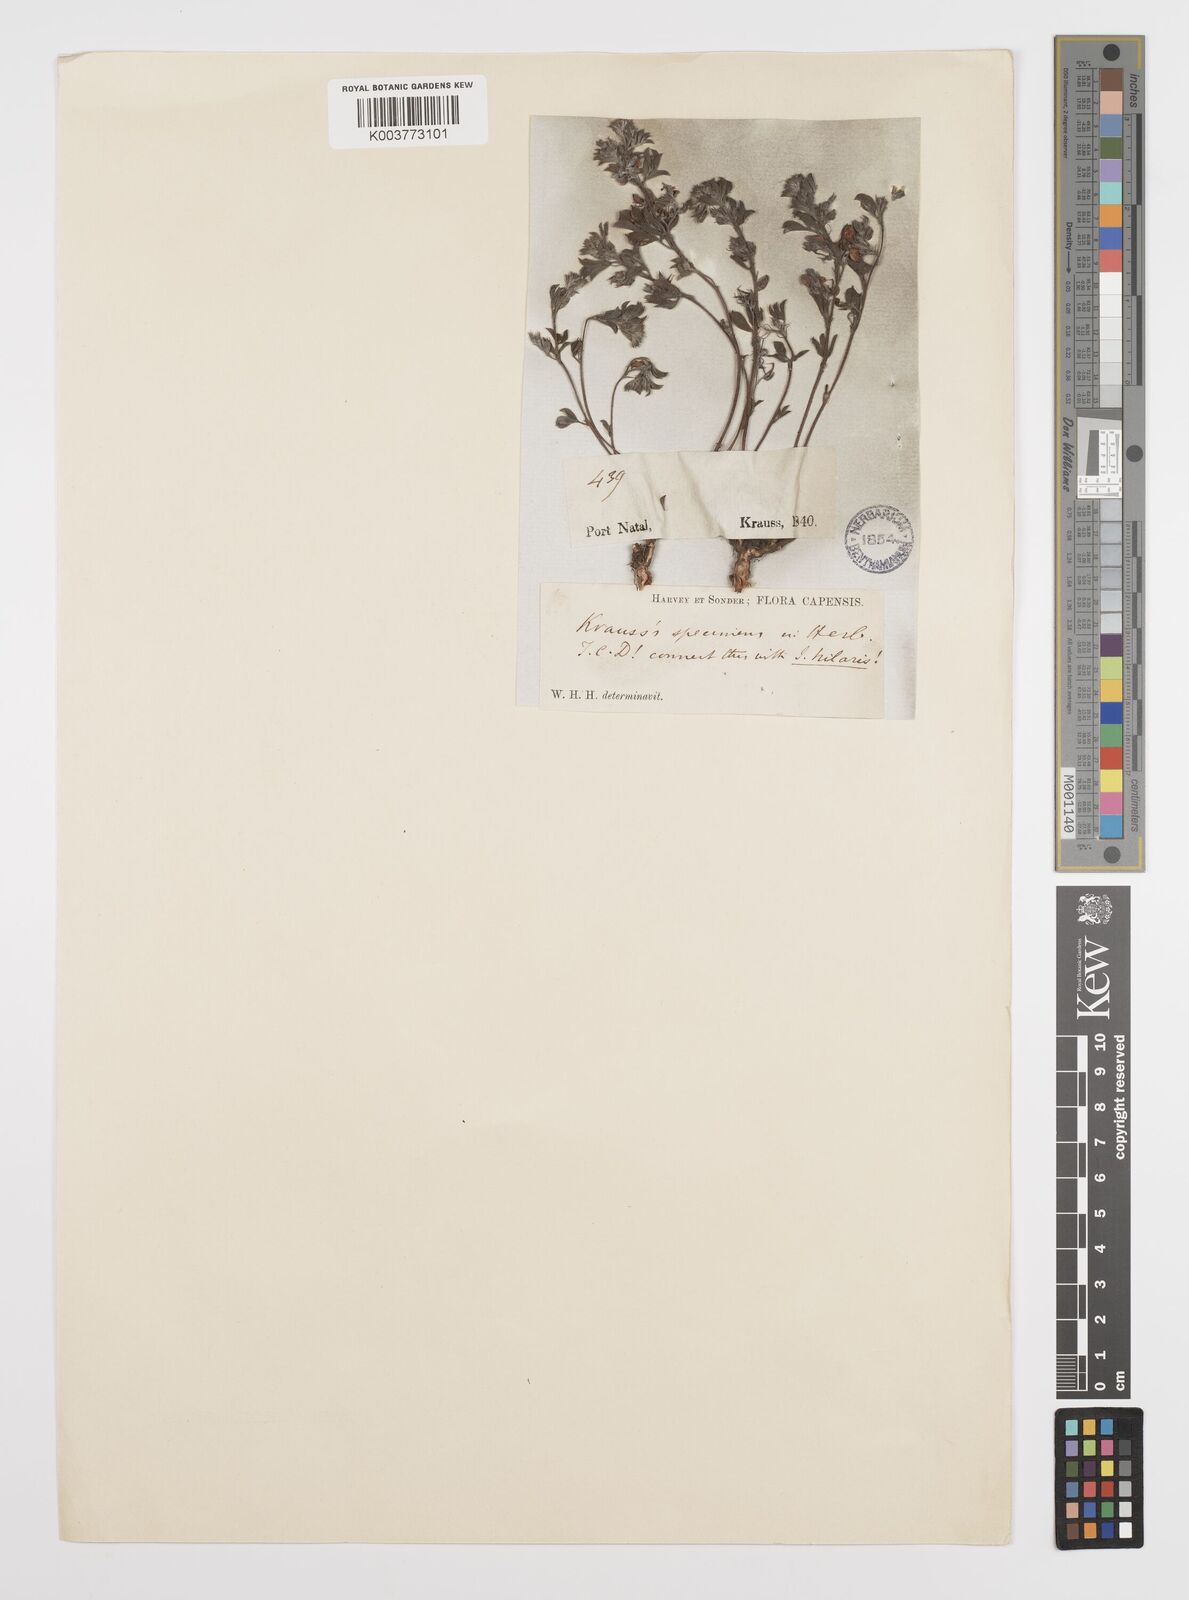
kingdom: Plantae
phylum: Tracheophyta
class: Magnoliopsida
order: Fabales
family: Fabaceae
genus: Indigofera
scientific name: Indigofera
